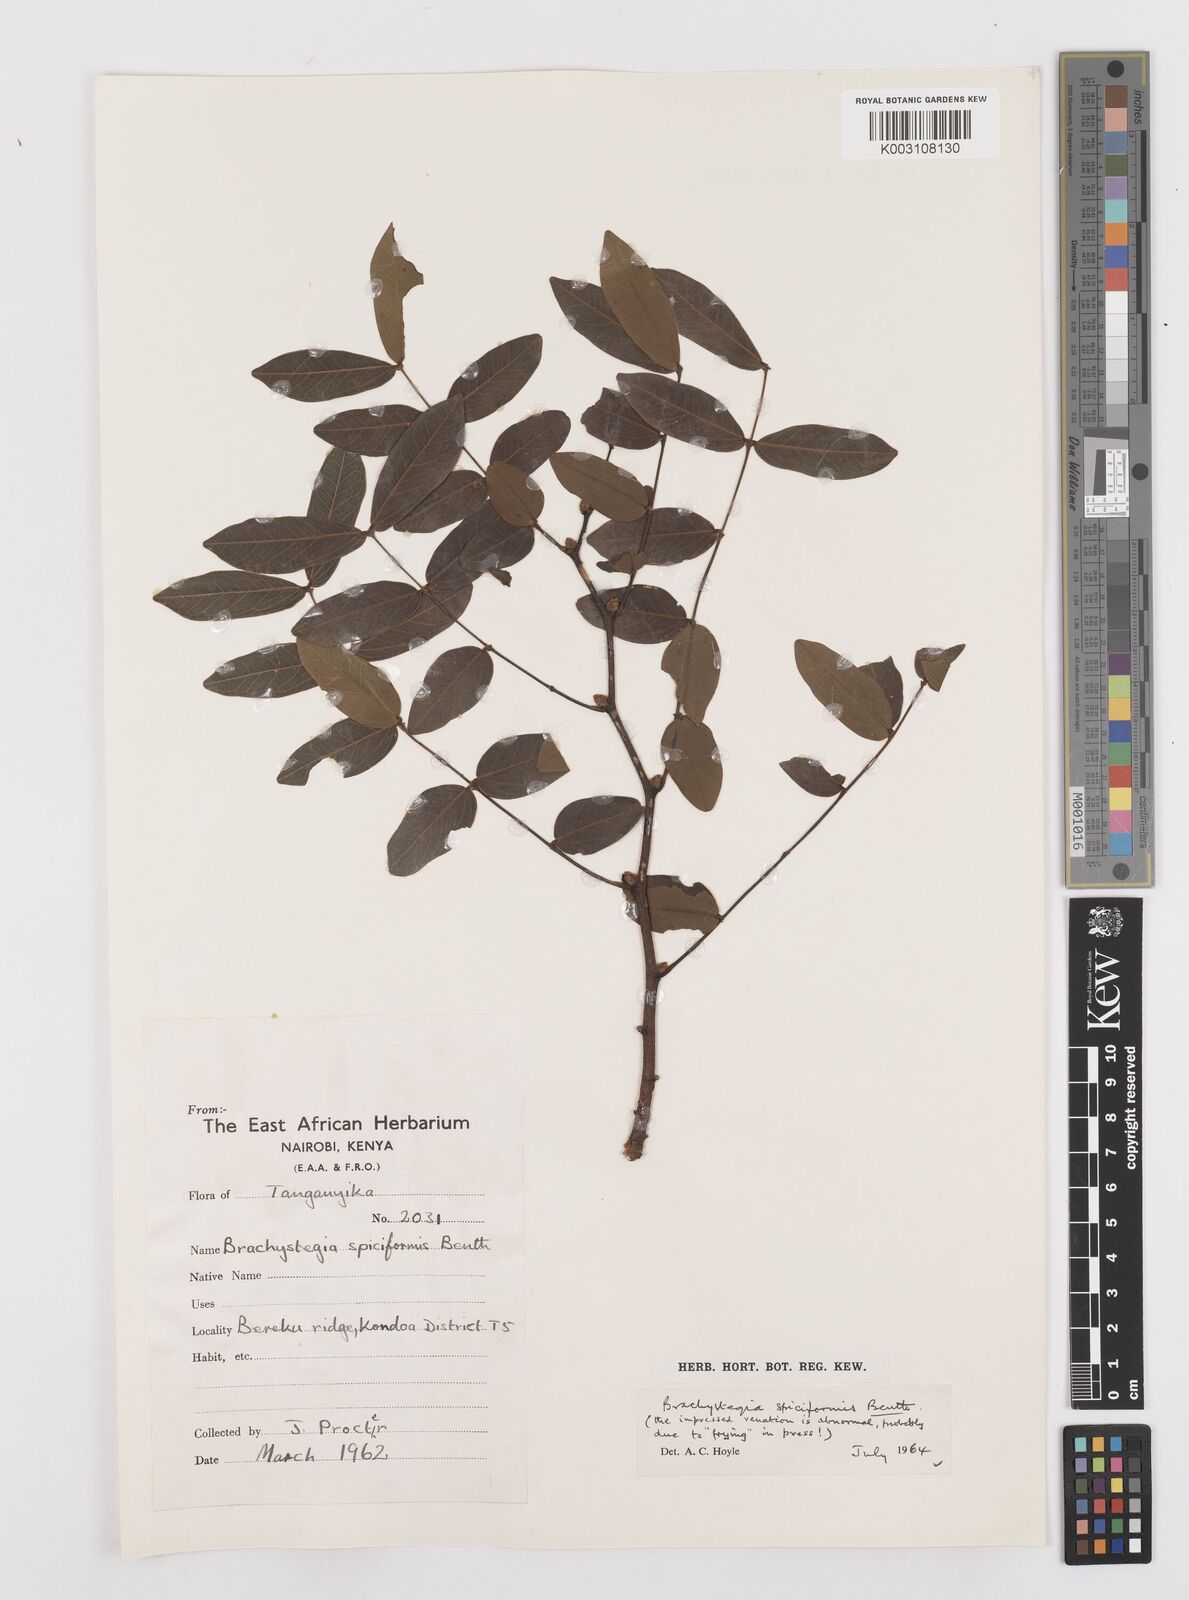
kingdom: Plantae
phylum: Tracheophyta
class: Magnoliopsida
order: Fabales
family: Fabaceae
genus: Brachystegia
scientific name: Brachystegia spiciformis
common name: Zebrawood
